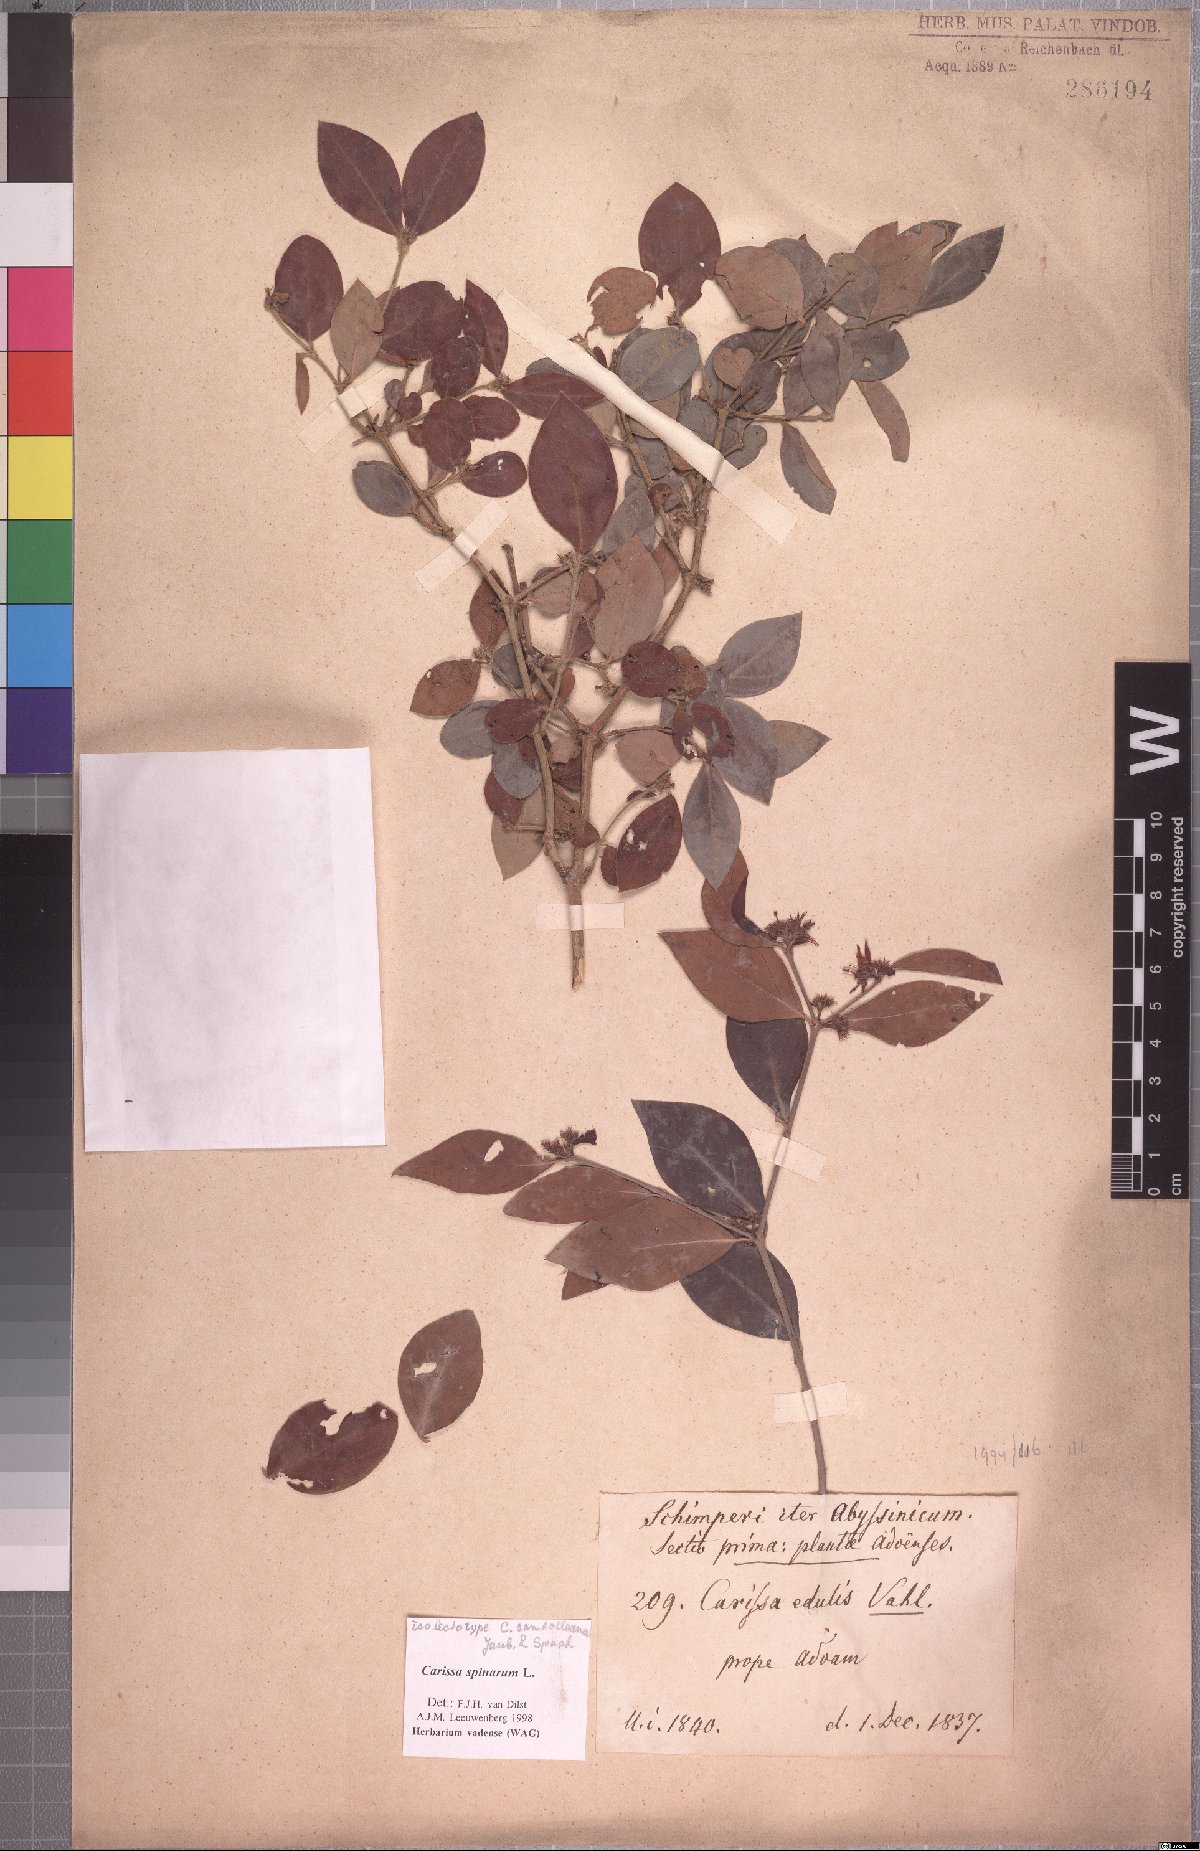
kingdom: Plantae
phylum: Tracheophyta
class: Magnoliopsida
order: Gentianales
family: Apocynaceae
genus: Carissa
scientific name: Carissa spinarum
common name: Egyptian carissa
